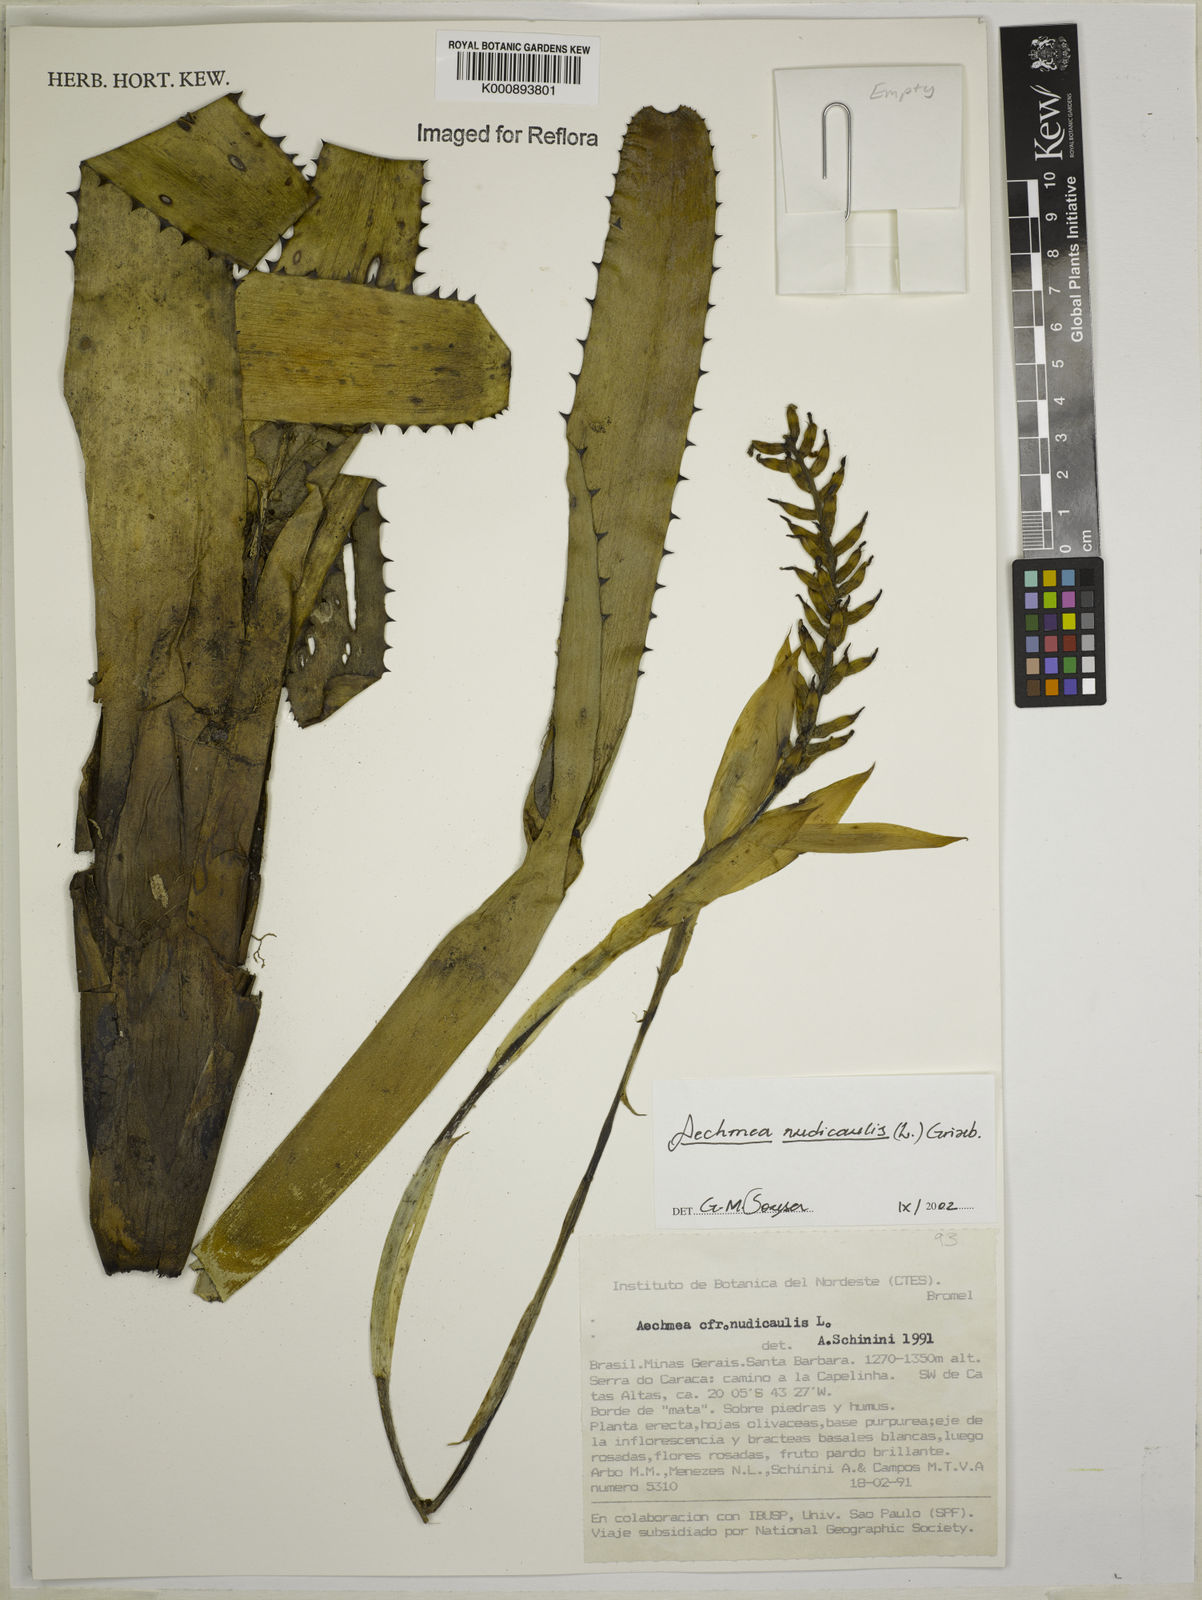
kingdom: Plantae
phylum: Tracheophyta
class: Liliopsida
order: Poales
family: Bromeliaceae
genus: Aechmea
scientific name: Aechmea nudicaulis
